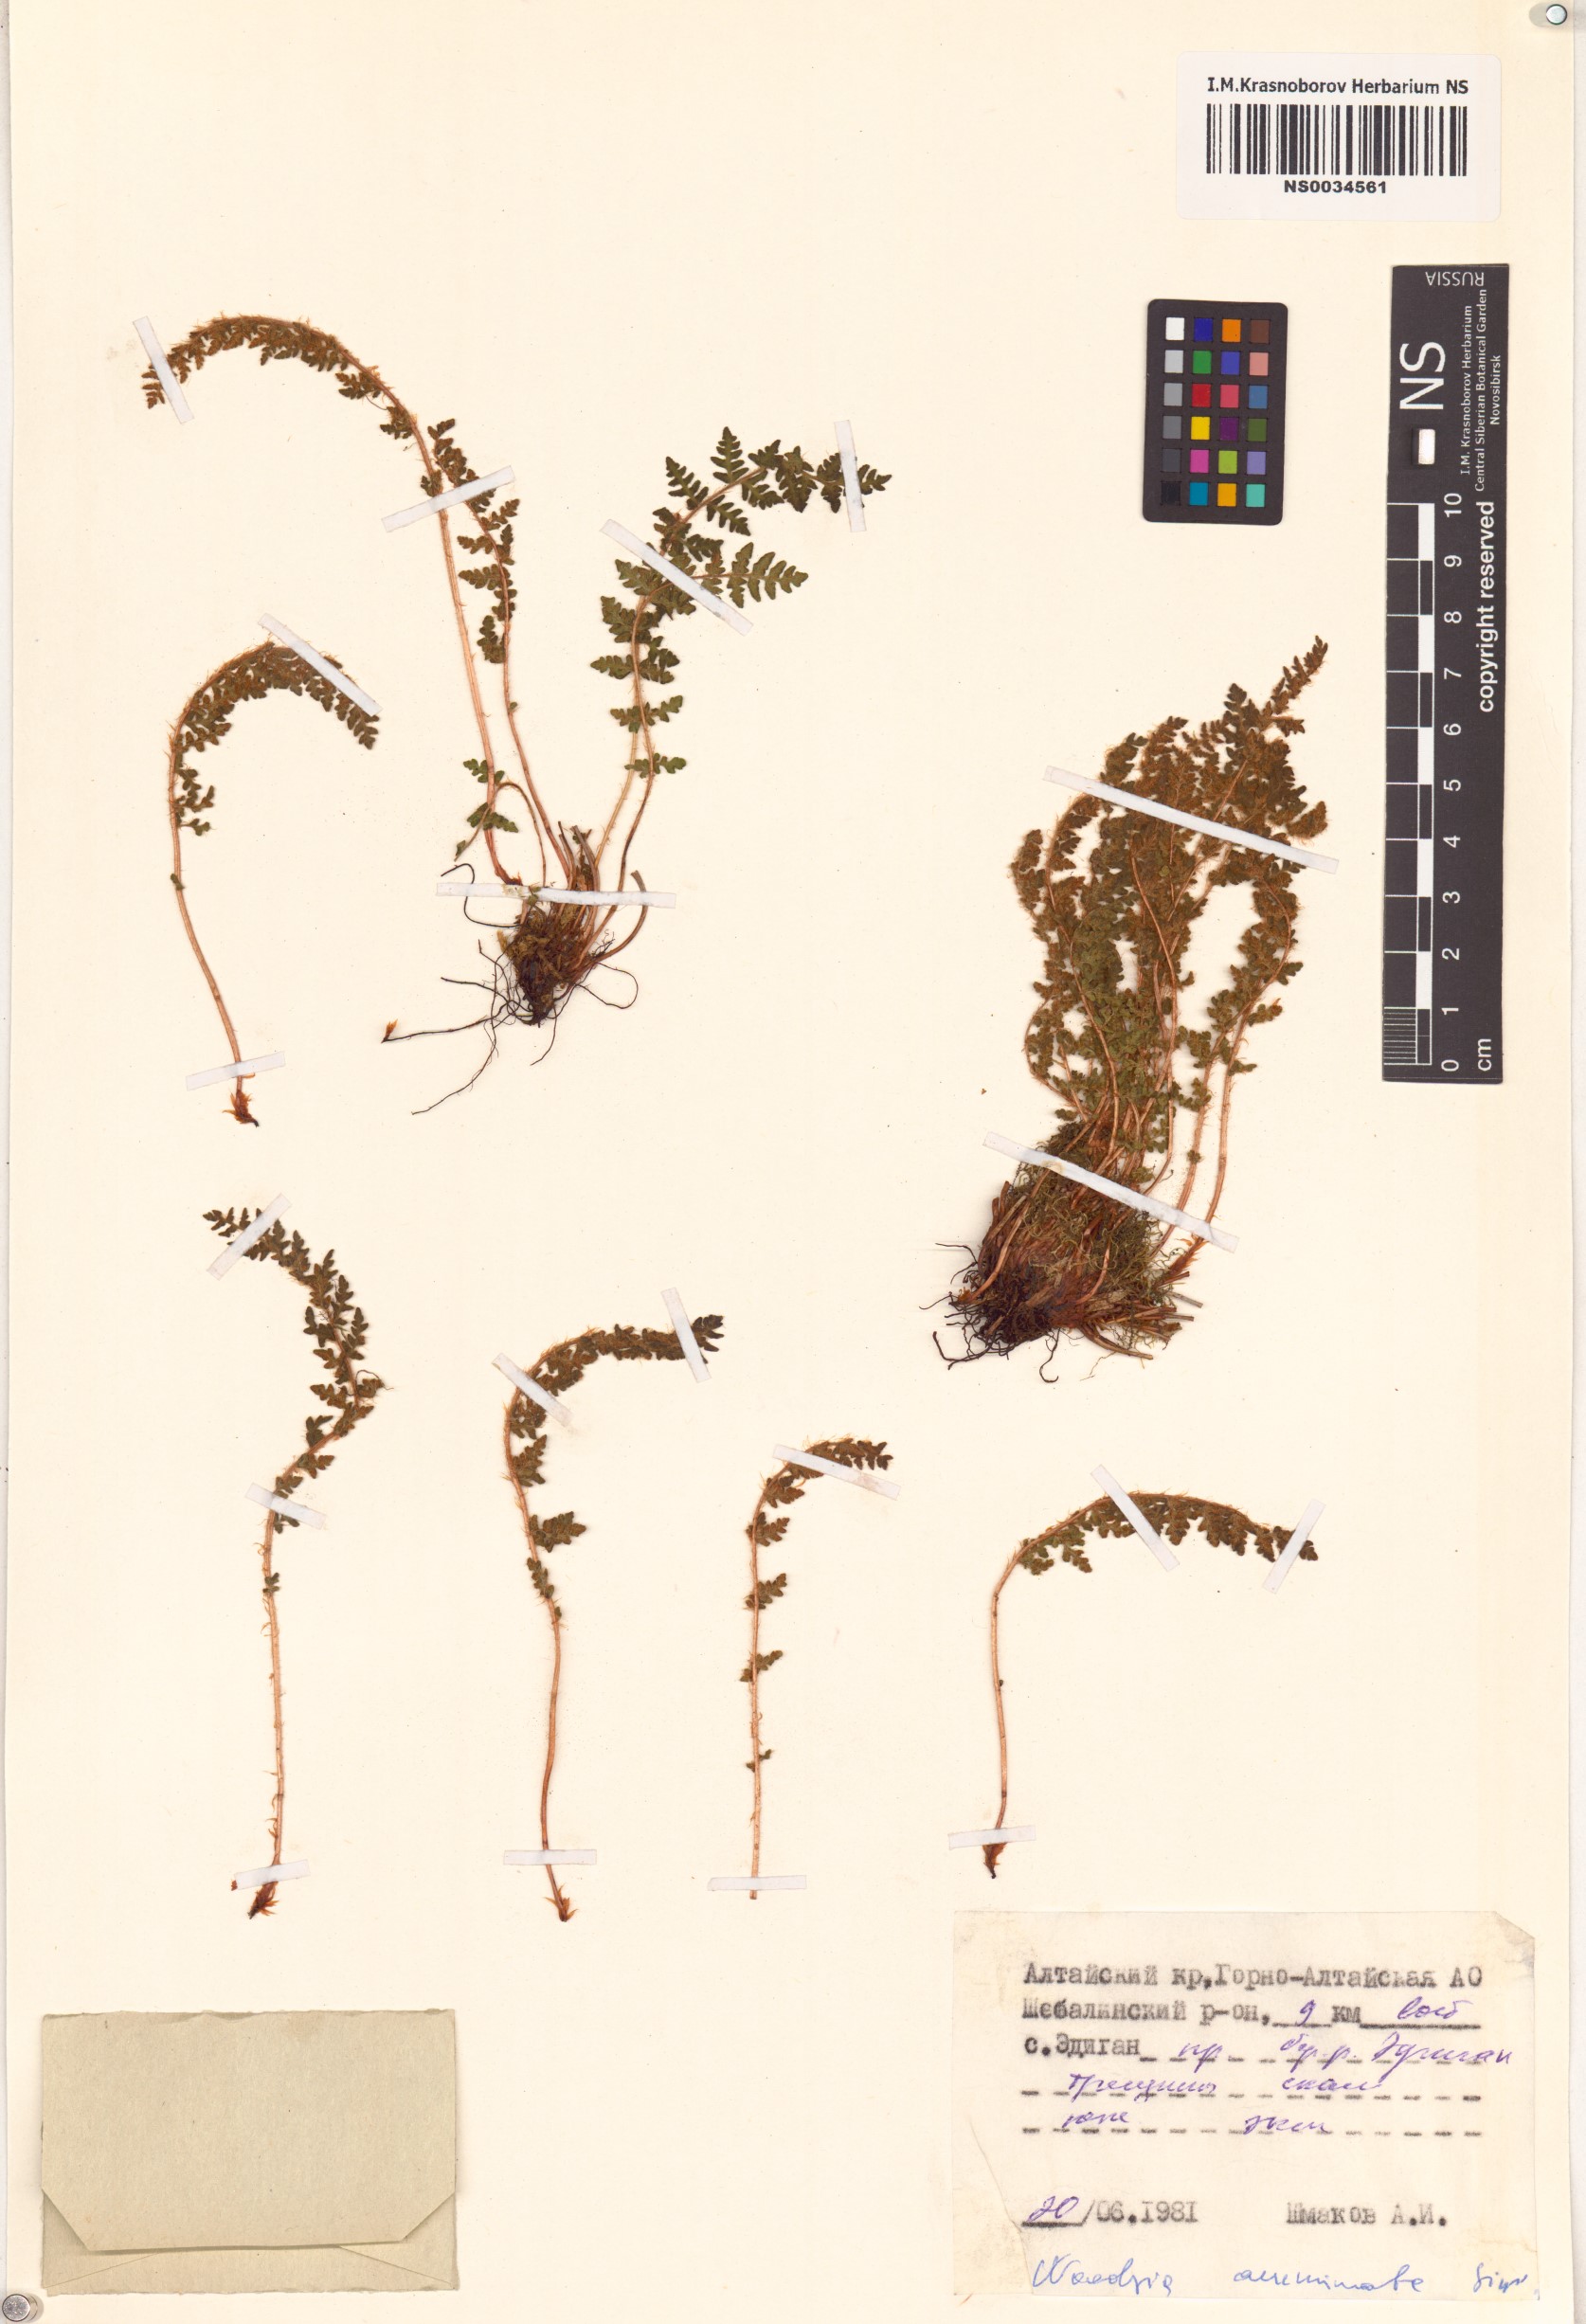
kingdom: Plantae
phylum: Tracheophyta
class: Polypodiopsida
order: Polypodiales
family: Woodsiaceae
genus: Woodsia
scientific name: Woodsia ilvensis
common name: Fragrant woodsia
